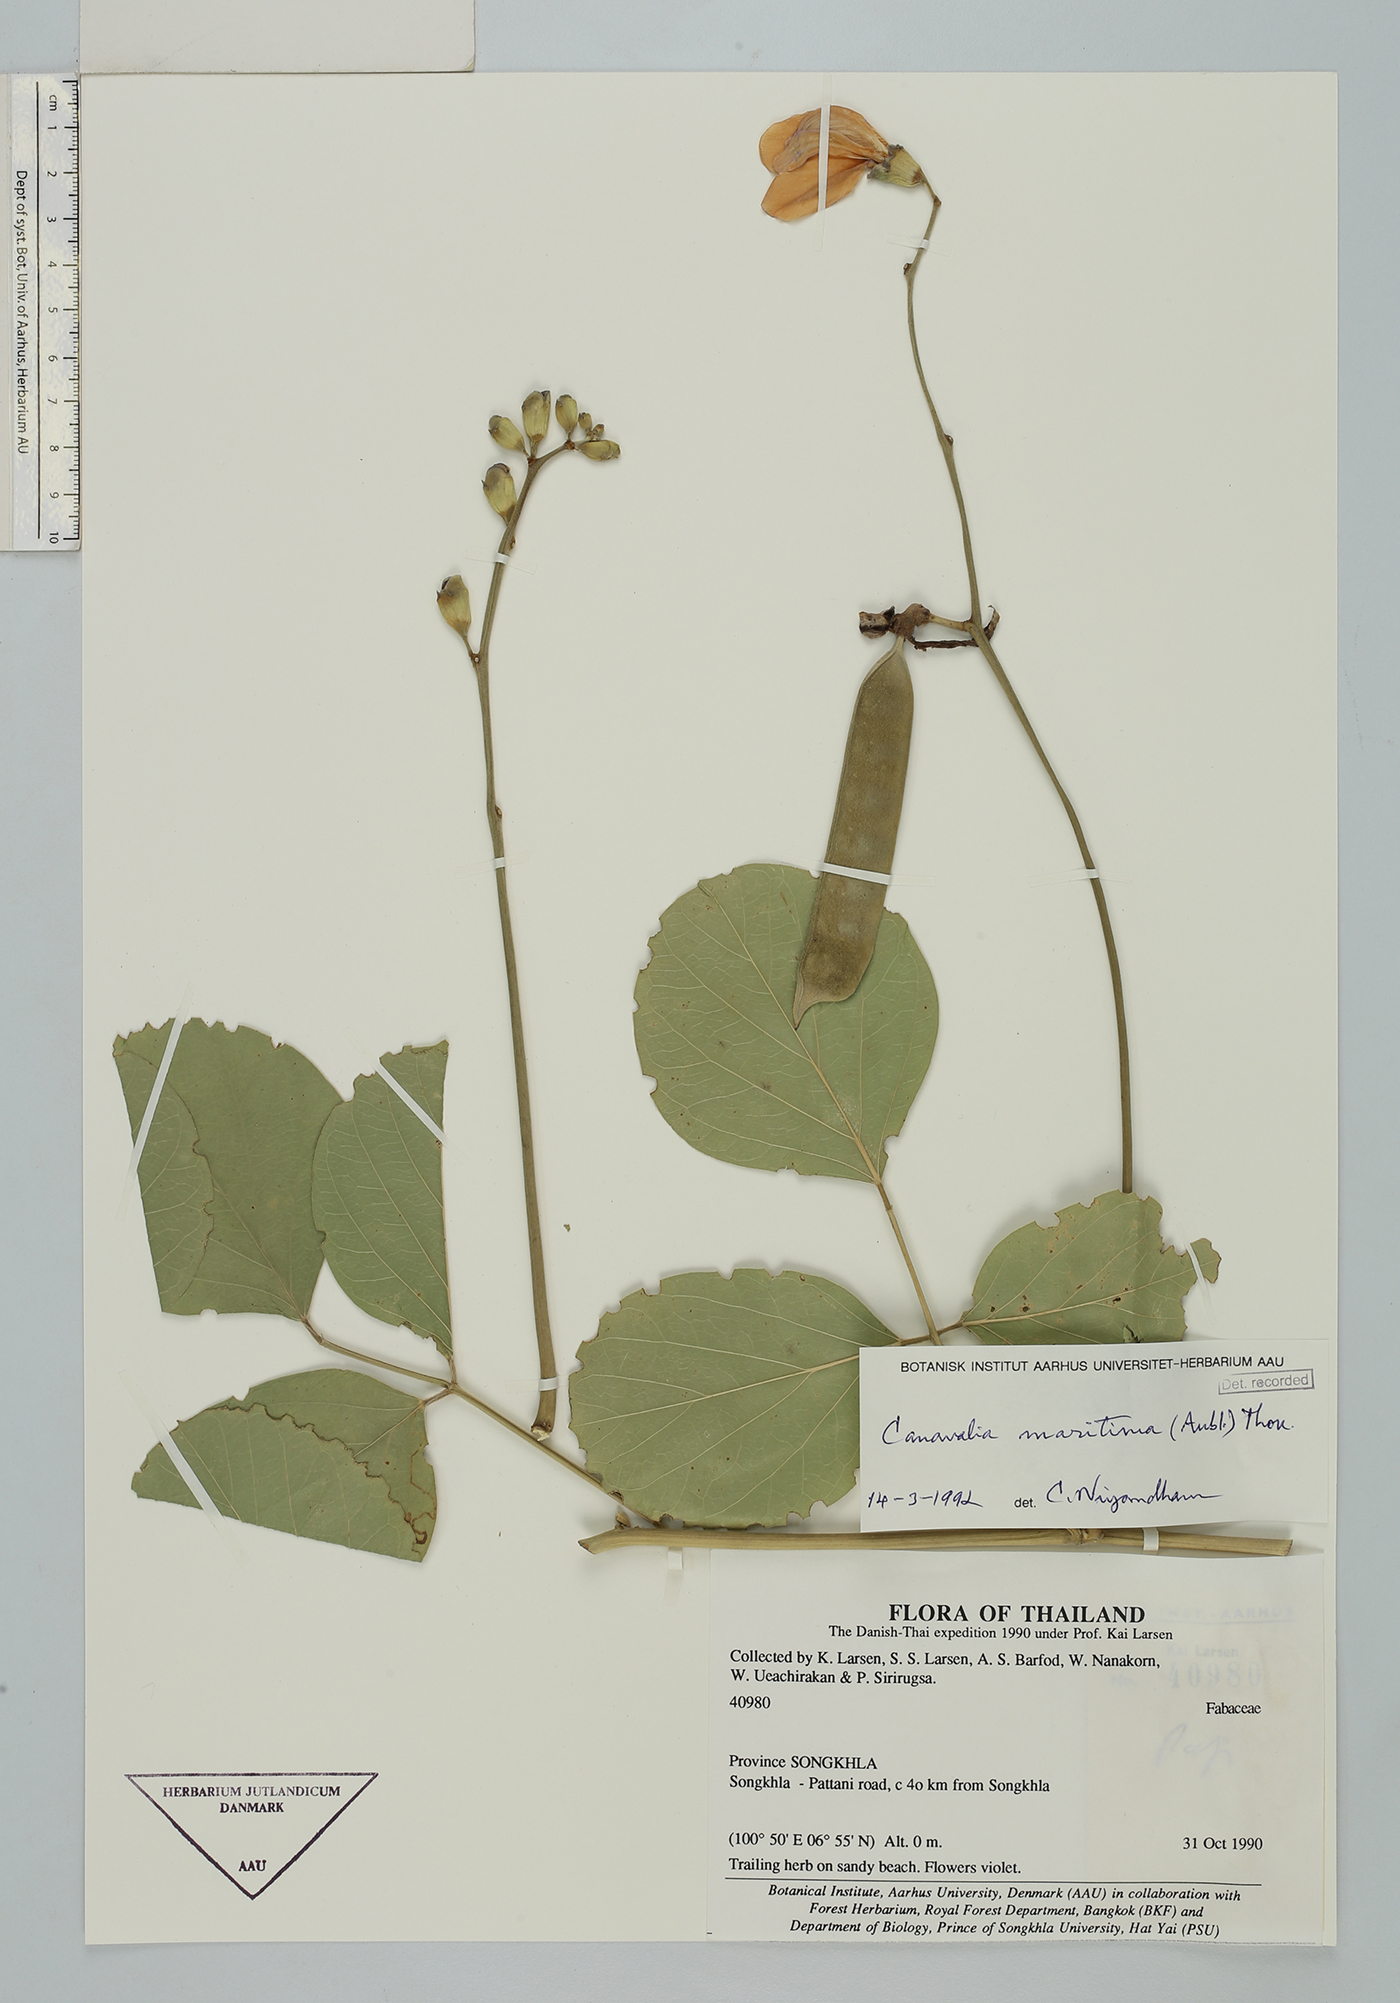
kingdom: Plantae
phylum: Tracheophyta
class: Magnoliopsida
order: Fabales
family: Fabaceae
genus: Canavalia
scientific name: Canavalia rosea
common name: Beach-bean
